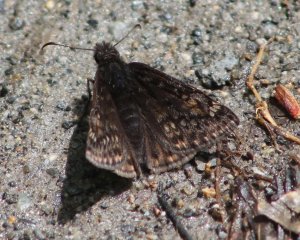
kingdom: Animalia
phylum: Arthropoda
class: Insecta
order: Lepidoptera
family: Hesperiidae
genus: Gesta
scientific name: Gesta
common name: Juvenal's Duskywing
